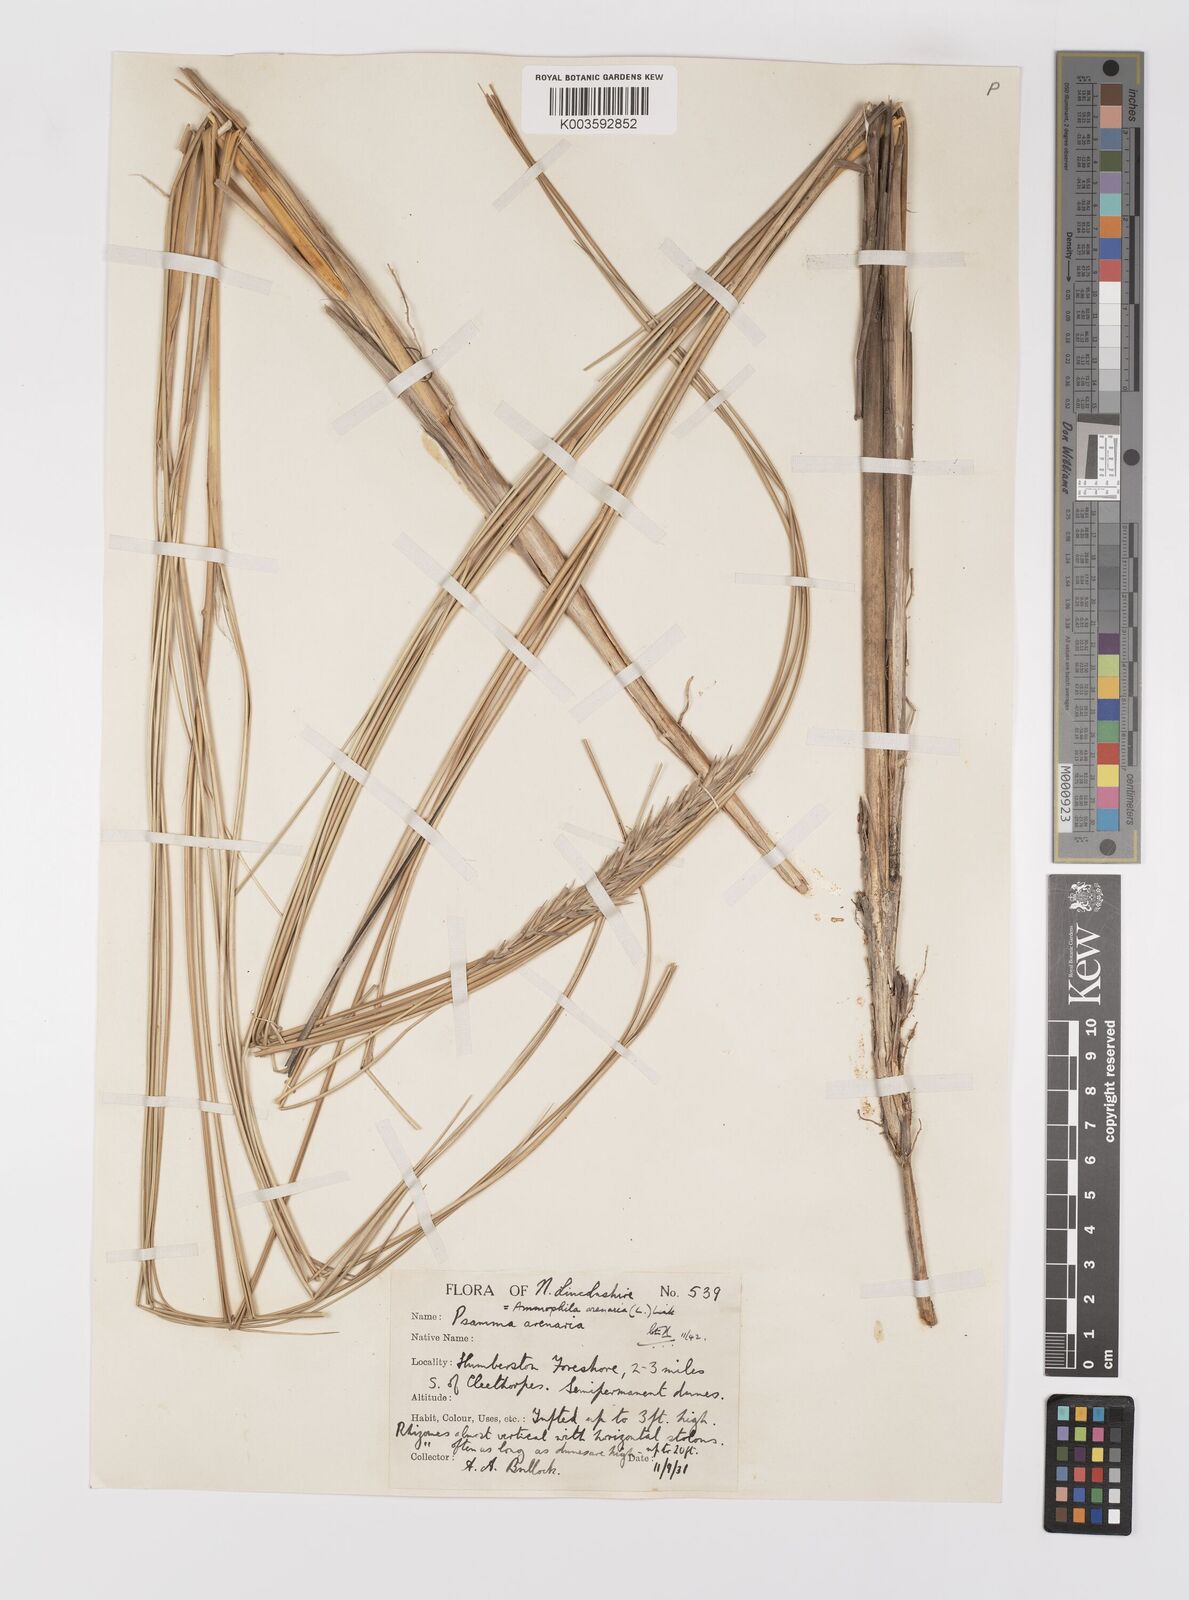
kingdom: Plantae
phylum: Tracheophyta
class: Liliopsida
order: Poales
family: Poaceae
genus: Calamagrostis
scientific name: Calamagrostis arenaria
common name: European beachgrass
